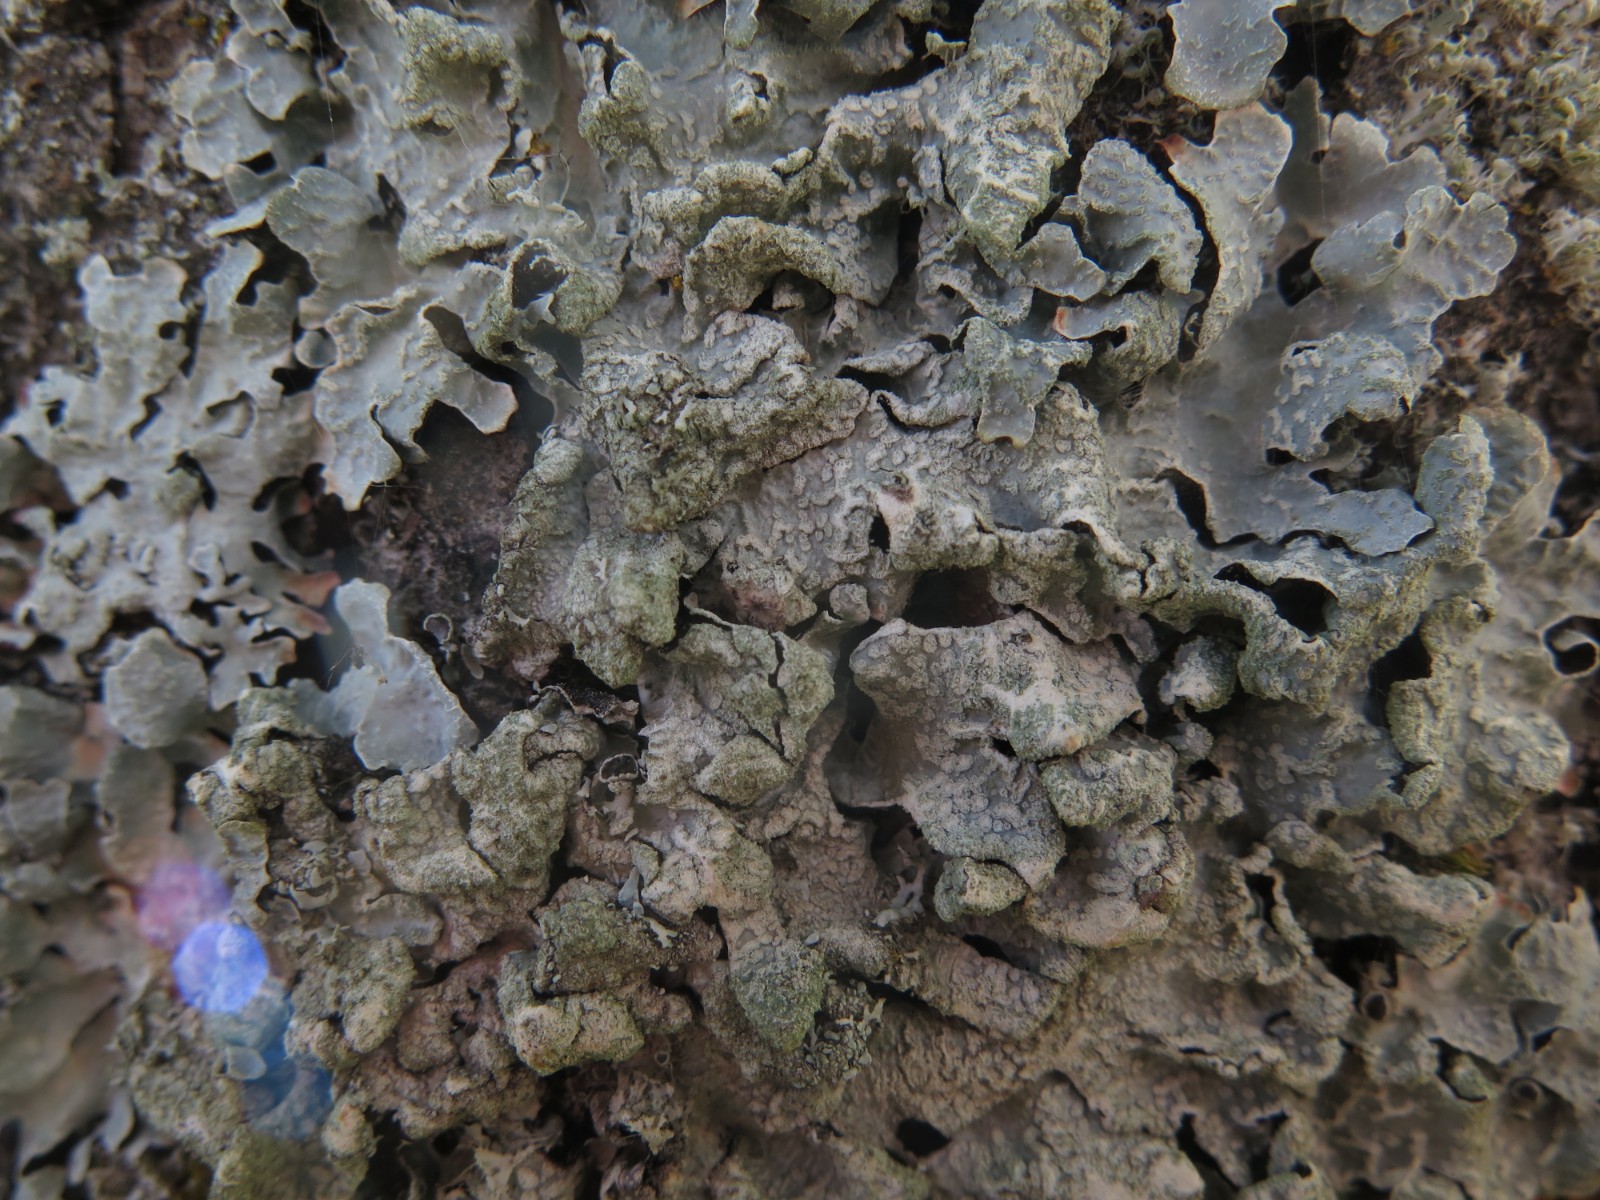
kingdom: Fungi
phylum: Ascomycota
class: Lecanoromycetes
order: Lecanorales
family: Parmeliaceae
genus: Parmelia
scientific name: Parmelia sulcata
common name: rynket skållav
